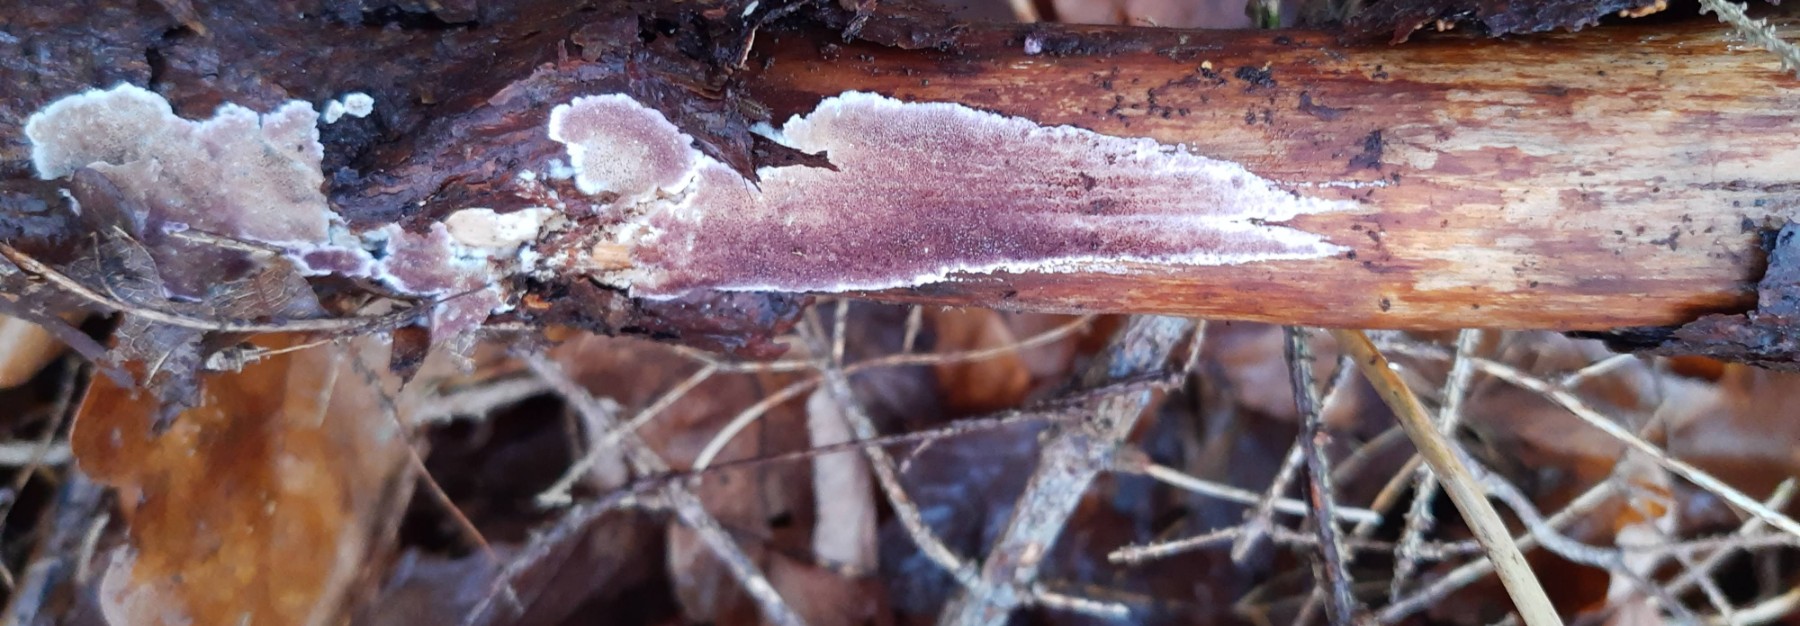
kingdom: Fungi
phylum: Basidiomycota
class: Agaricomycetes
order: Hymenochaetales
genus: Trichaptum
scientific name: Trichaptum abietinum
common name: almindelig violporesvamp
